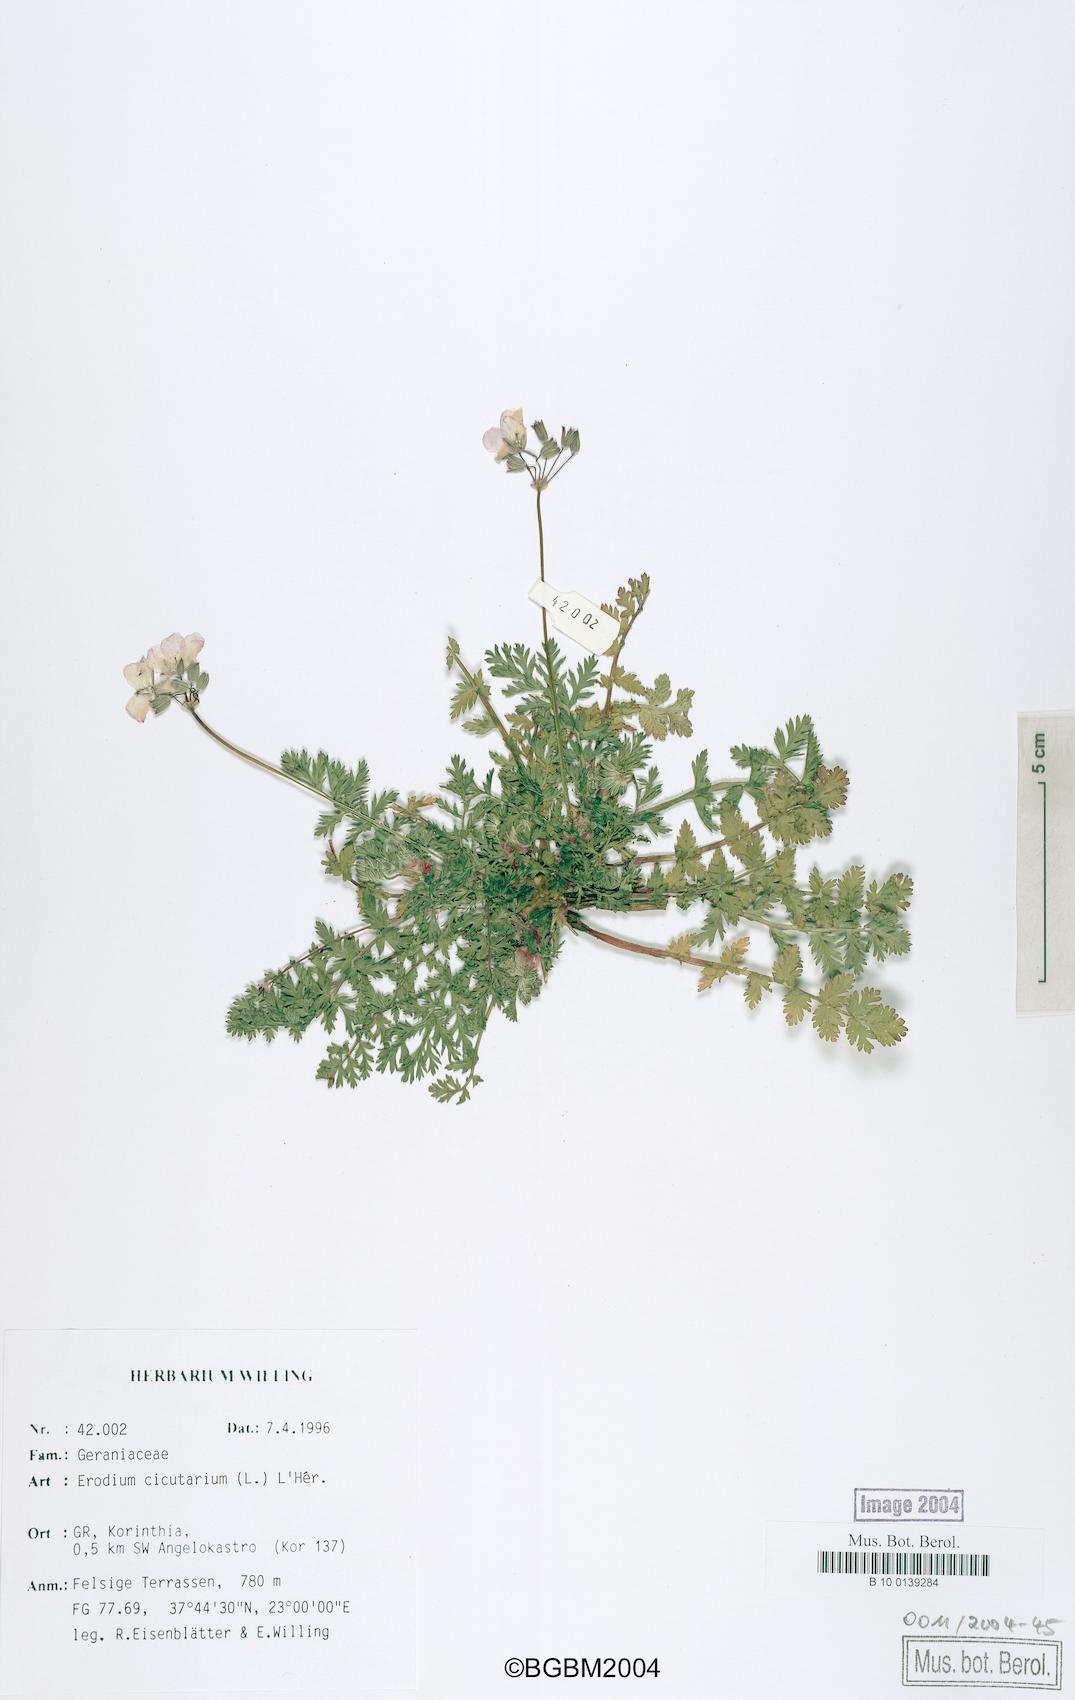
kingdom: Plantae
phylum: Tracheophyta
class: Magnoliopsida
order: Geraniales
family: Geraniaceae
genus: Erodium
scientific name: Erodium cicutarium
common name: Common stork's-bill
